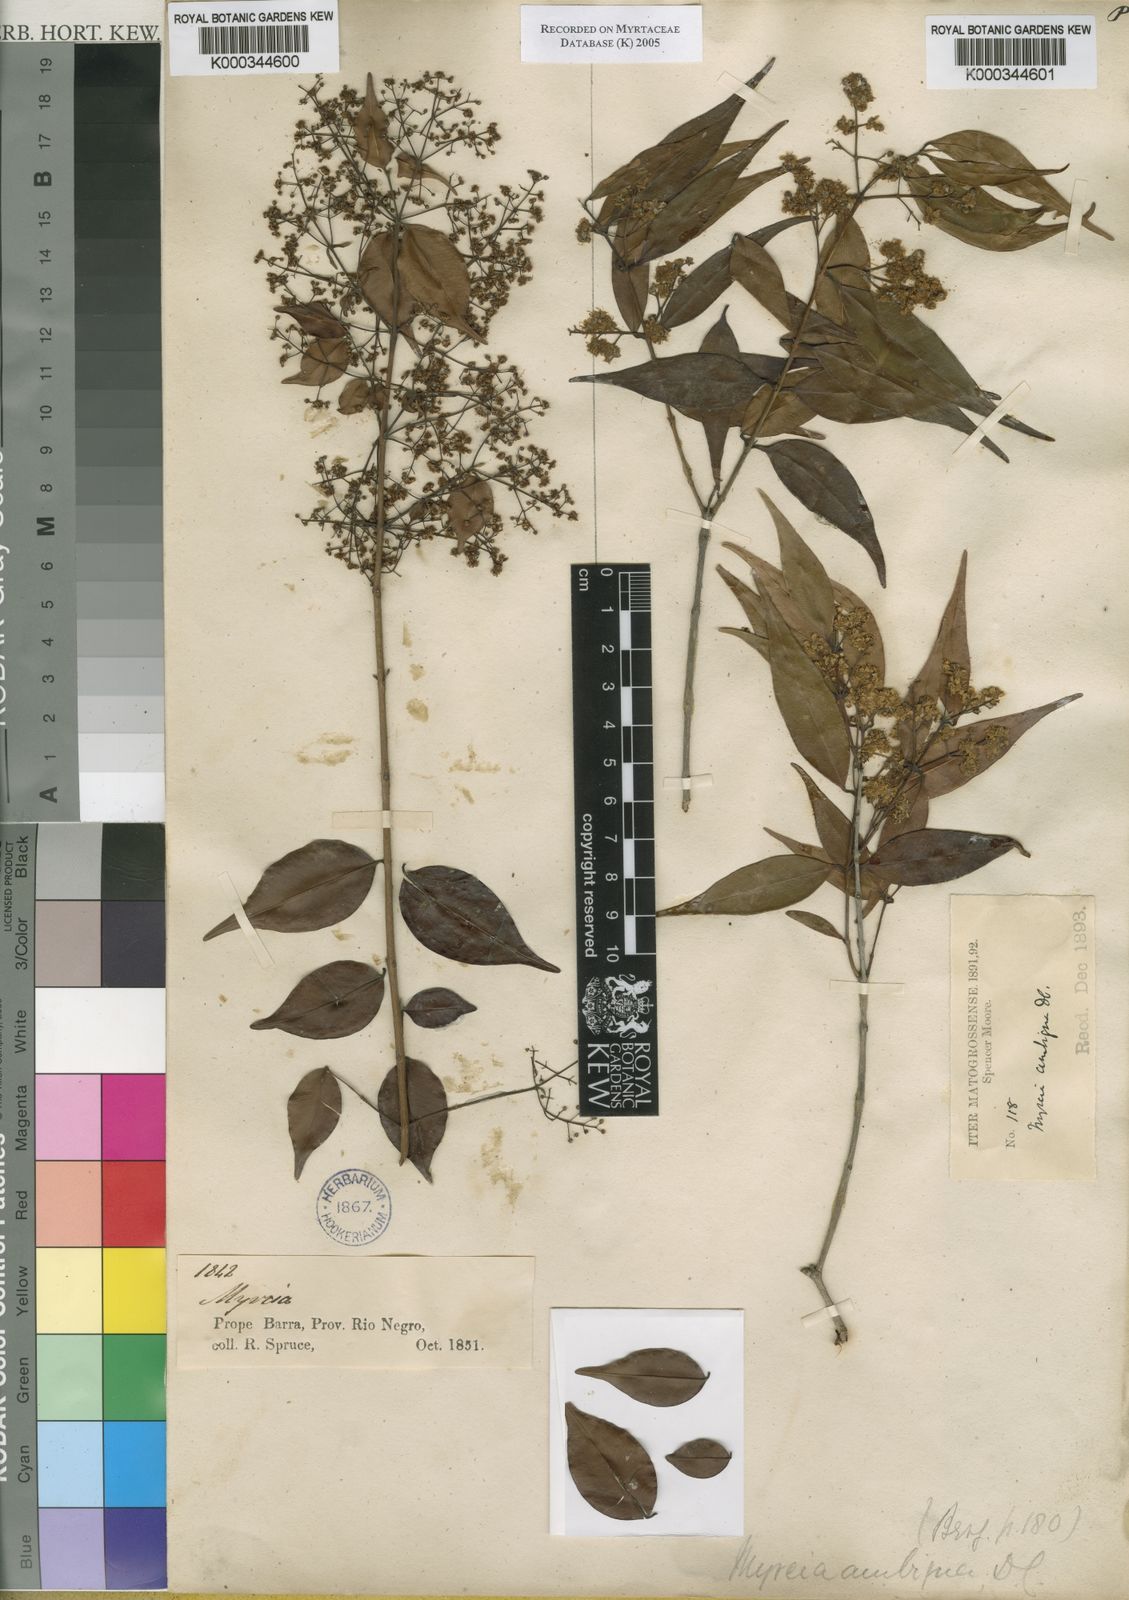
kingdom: Plantae
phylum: Tracheophyta
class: Magnoliopsida
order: Myrtales
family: Myrtaceae
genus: Myrcia
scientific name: Myrcia sylvatica
